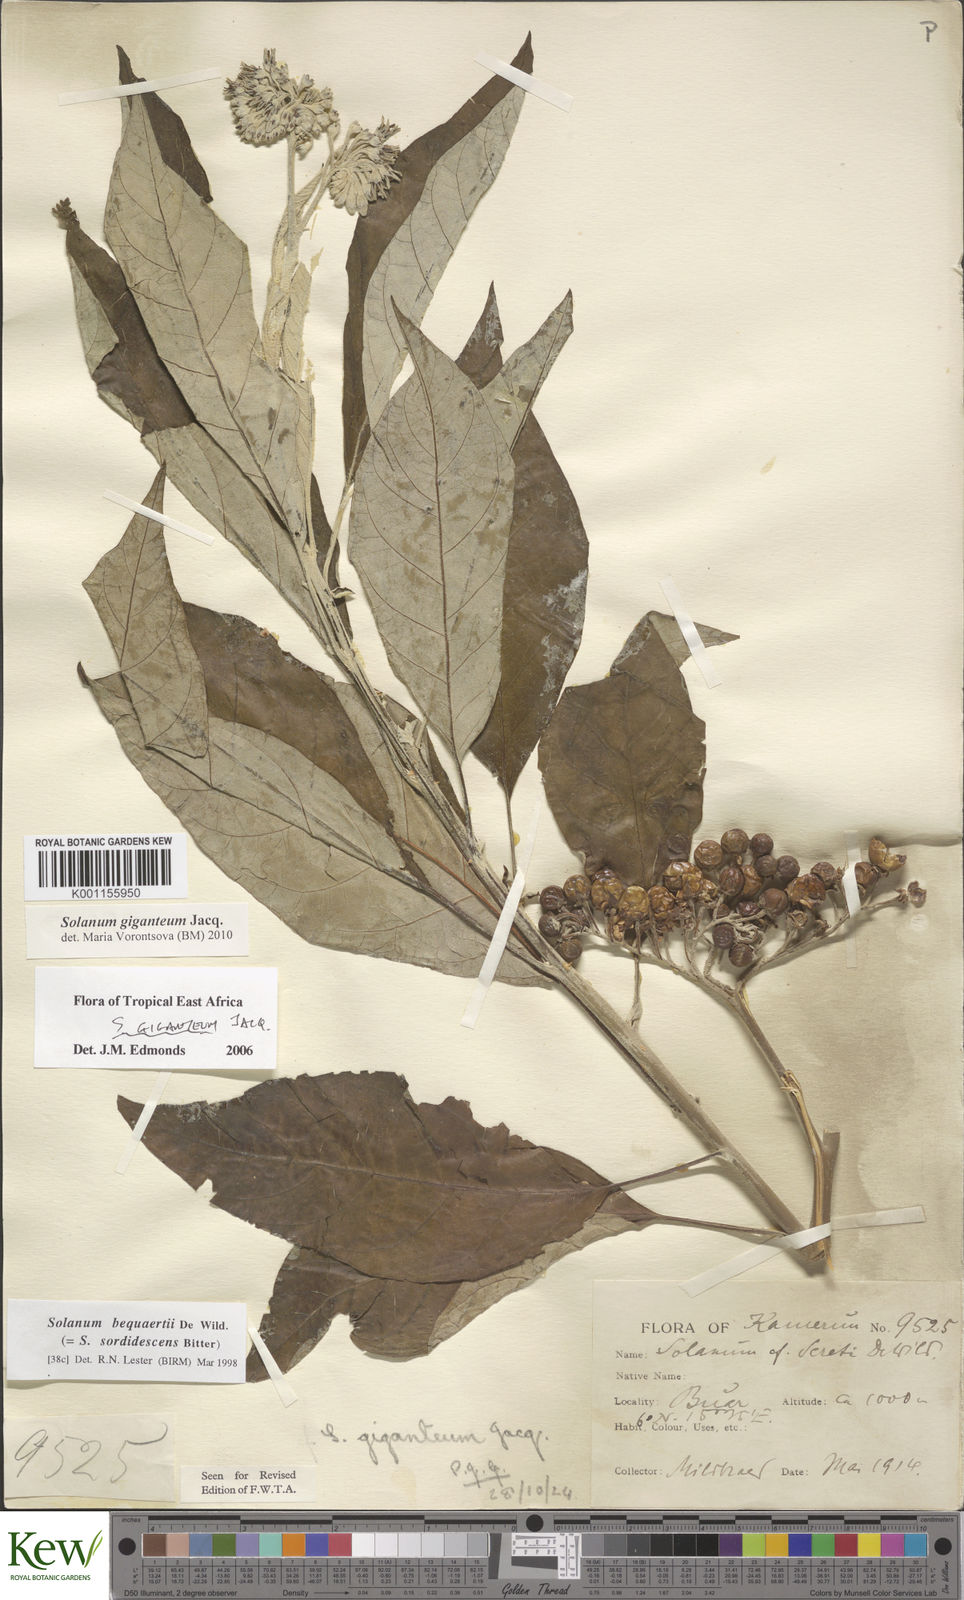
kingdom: Plantae
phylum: Tracheophyta
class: Magnoliopsida
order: Solanales
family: Solanaceae
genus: Solanum
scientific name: Solanum giganteum
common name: Healing-leaf-tree
